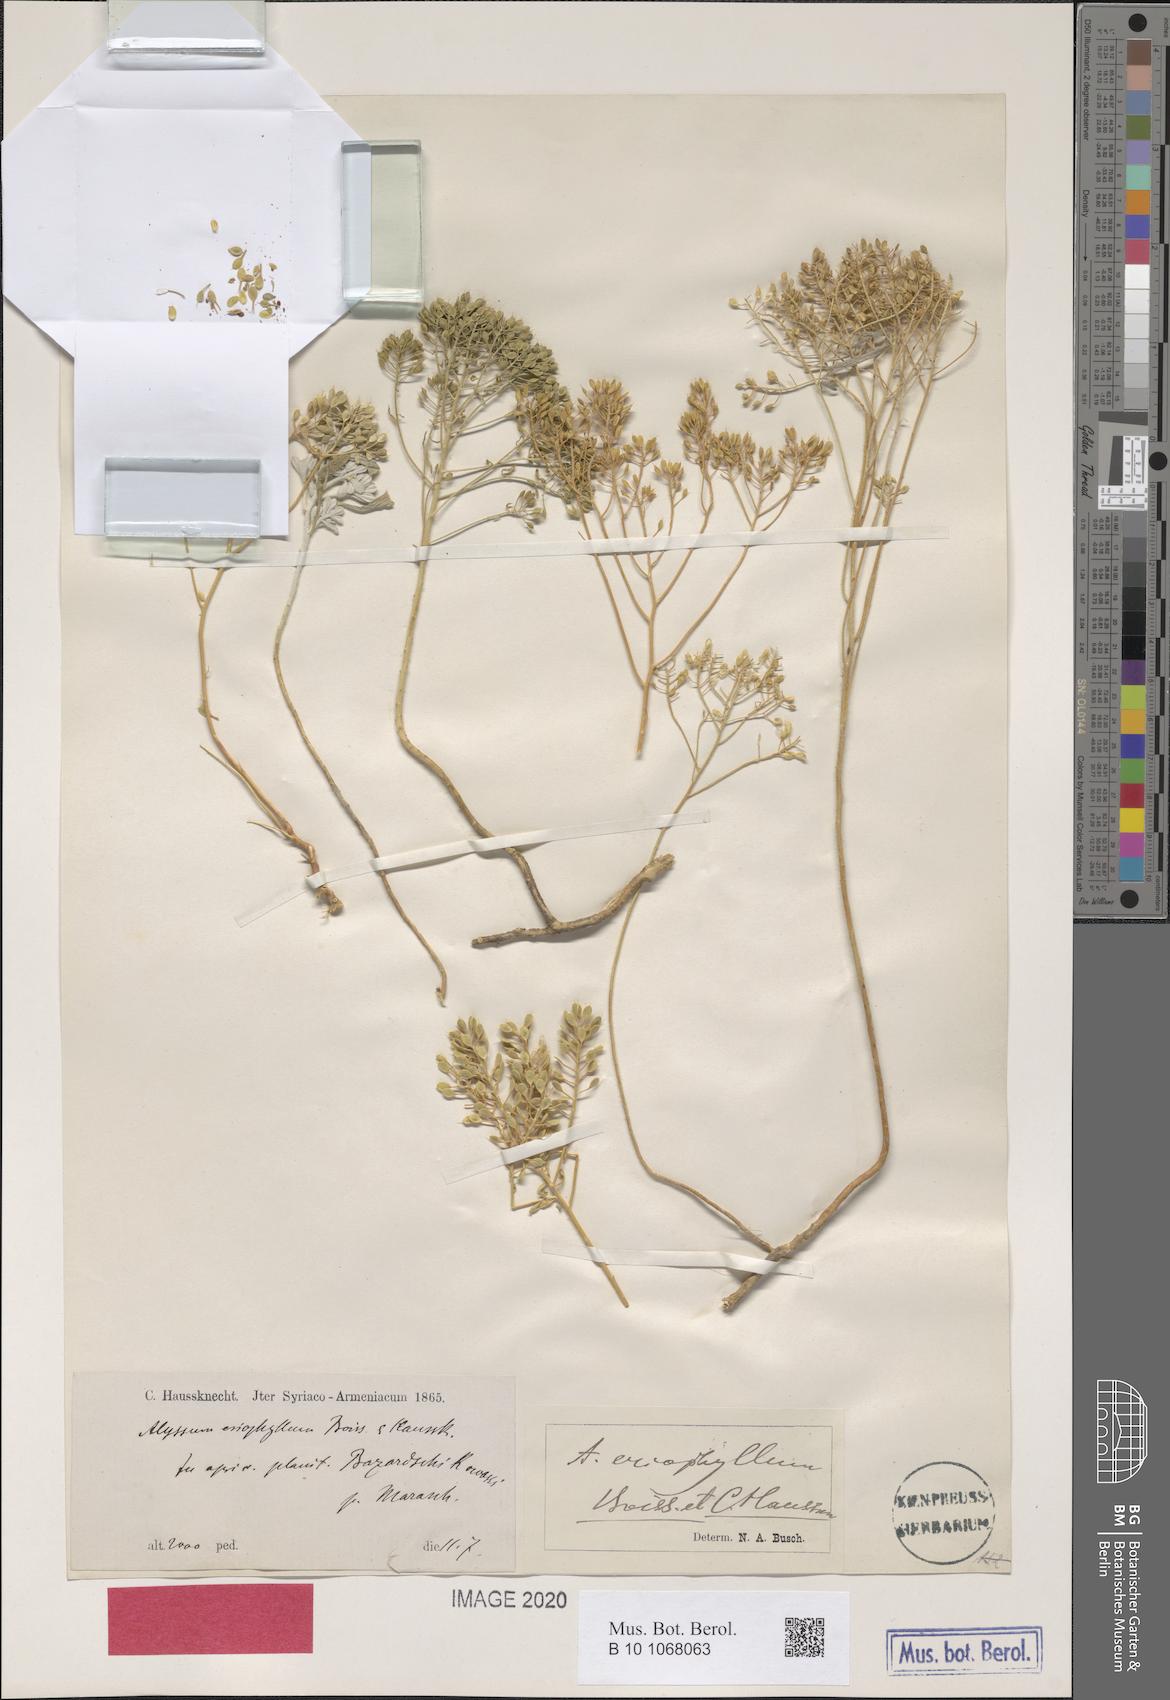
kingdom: Plantae
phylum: Tracheophyta
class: Magnoliopsida
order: Brassicales
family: Brassicaceae
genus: Odontarrhena
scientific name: Odontarrhena eriophylla
